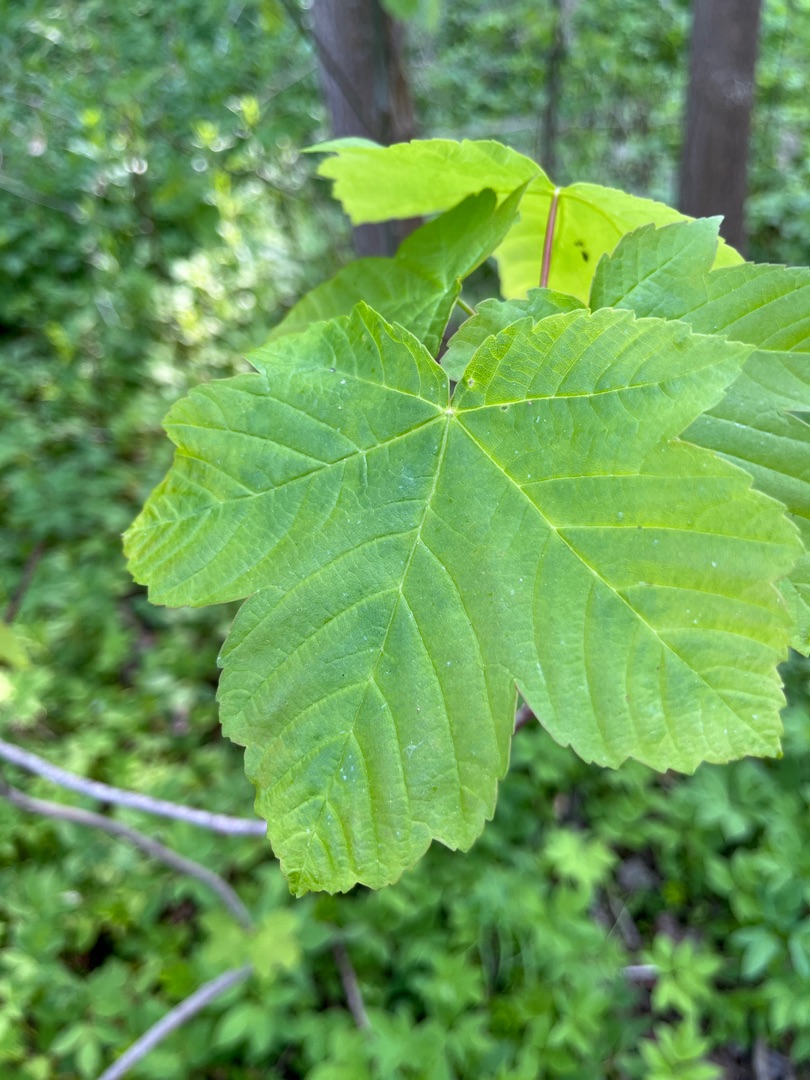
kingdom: Plantae
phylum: Tracheophyta
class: Magnoliopsida
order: Sapindales
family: Sapindaceae
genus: Acer
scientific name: Acer pseudoplatanus
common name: Ahorn
